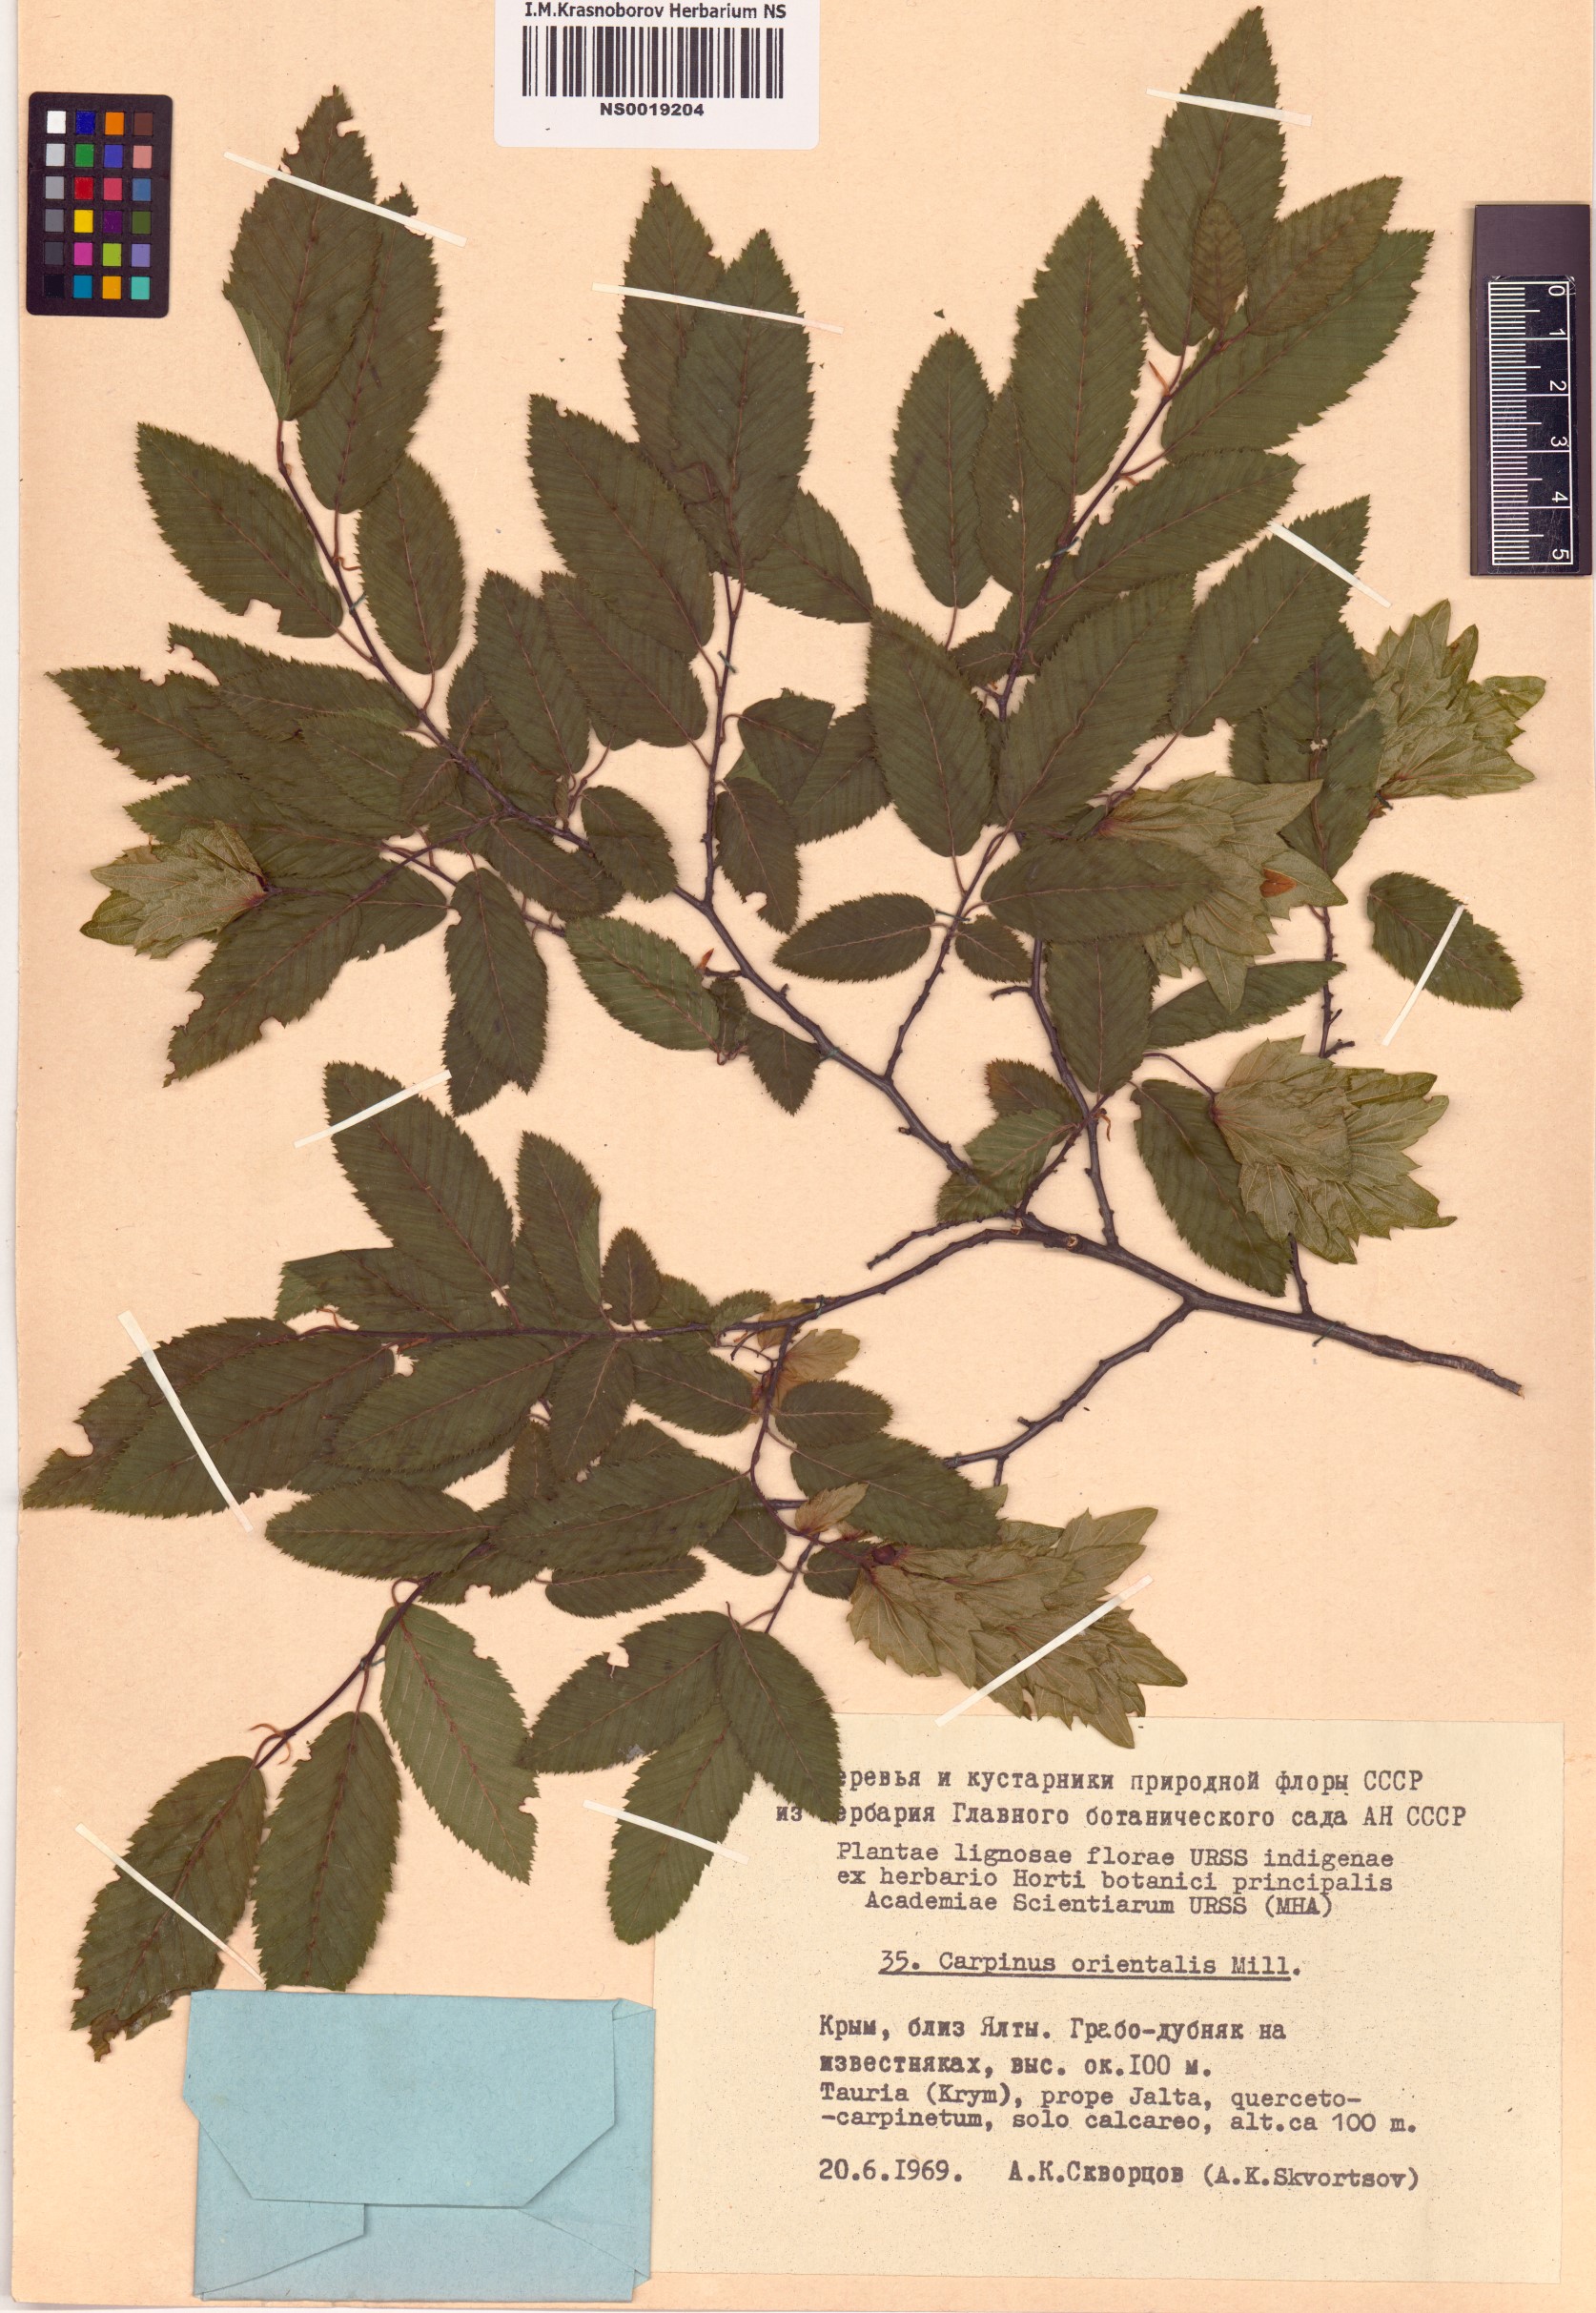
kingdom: Plantae
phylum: Tracheophyta
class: Magnoliopsida
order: Fagales
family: Betulaceae
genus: Carpinus
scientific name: Carpinus orientalis
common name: Eastern hornbeam
